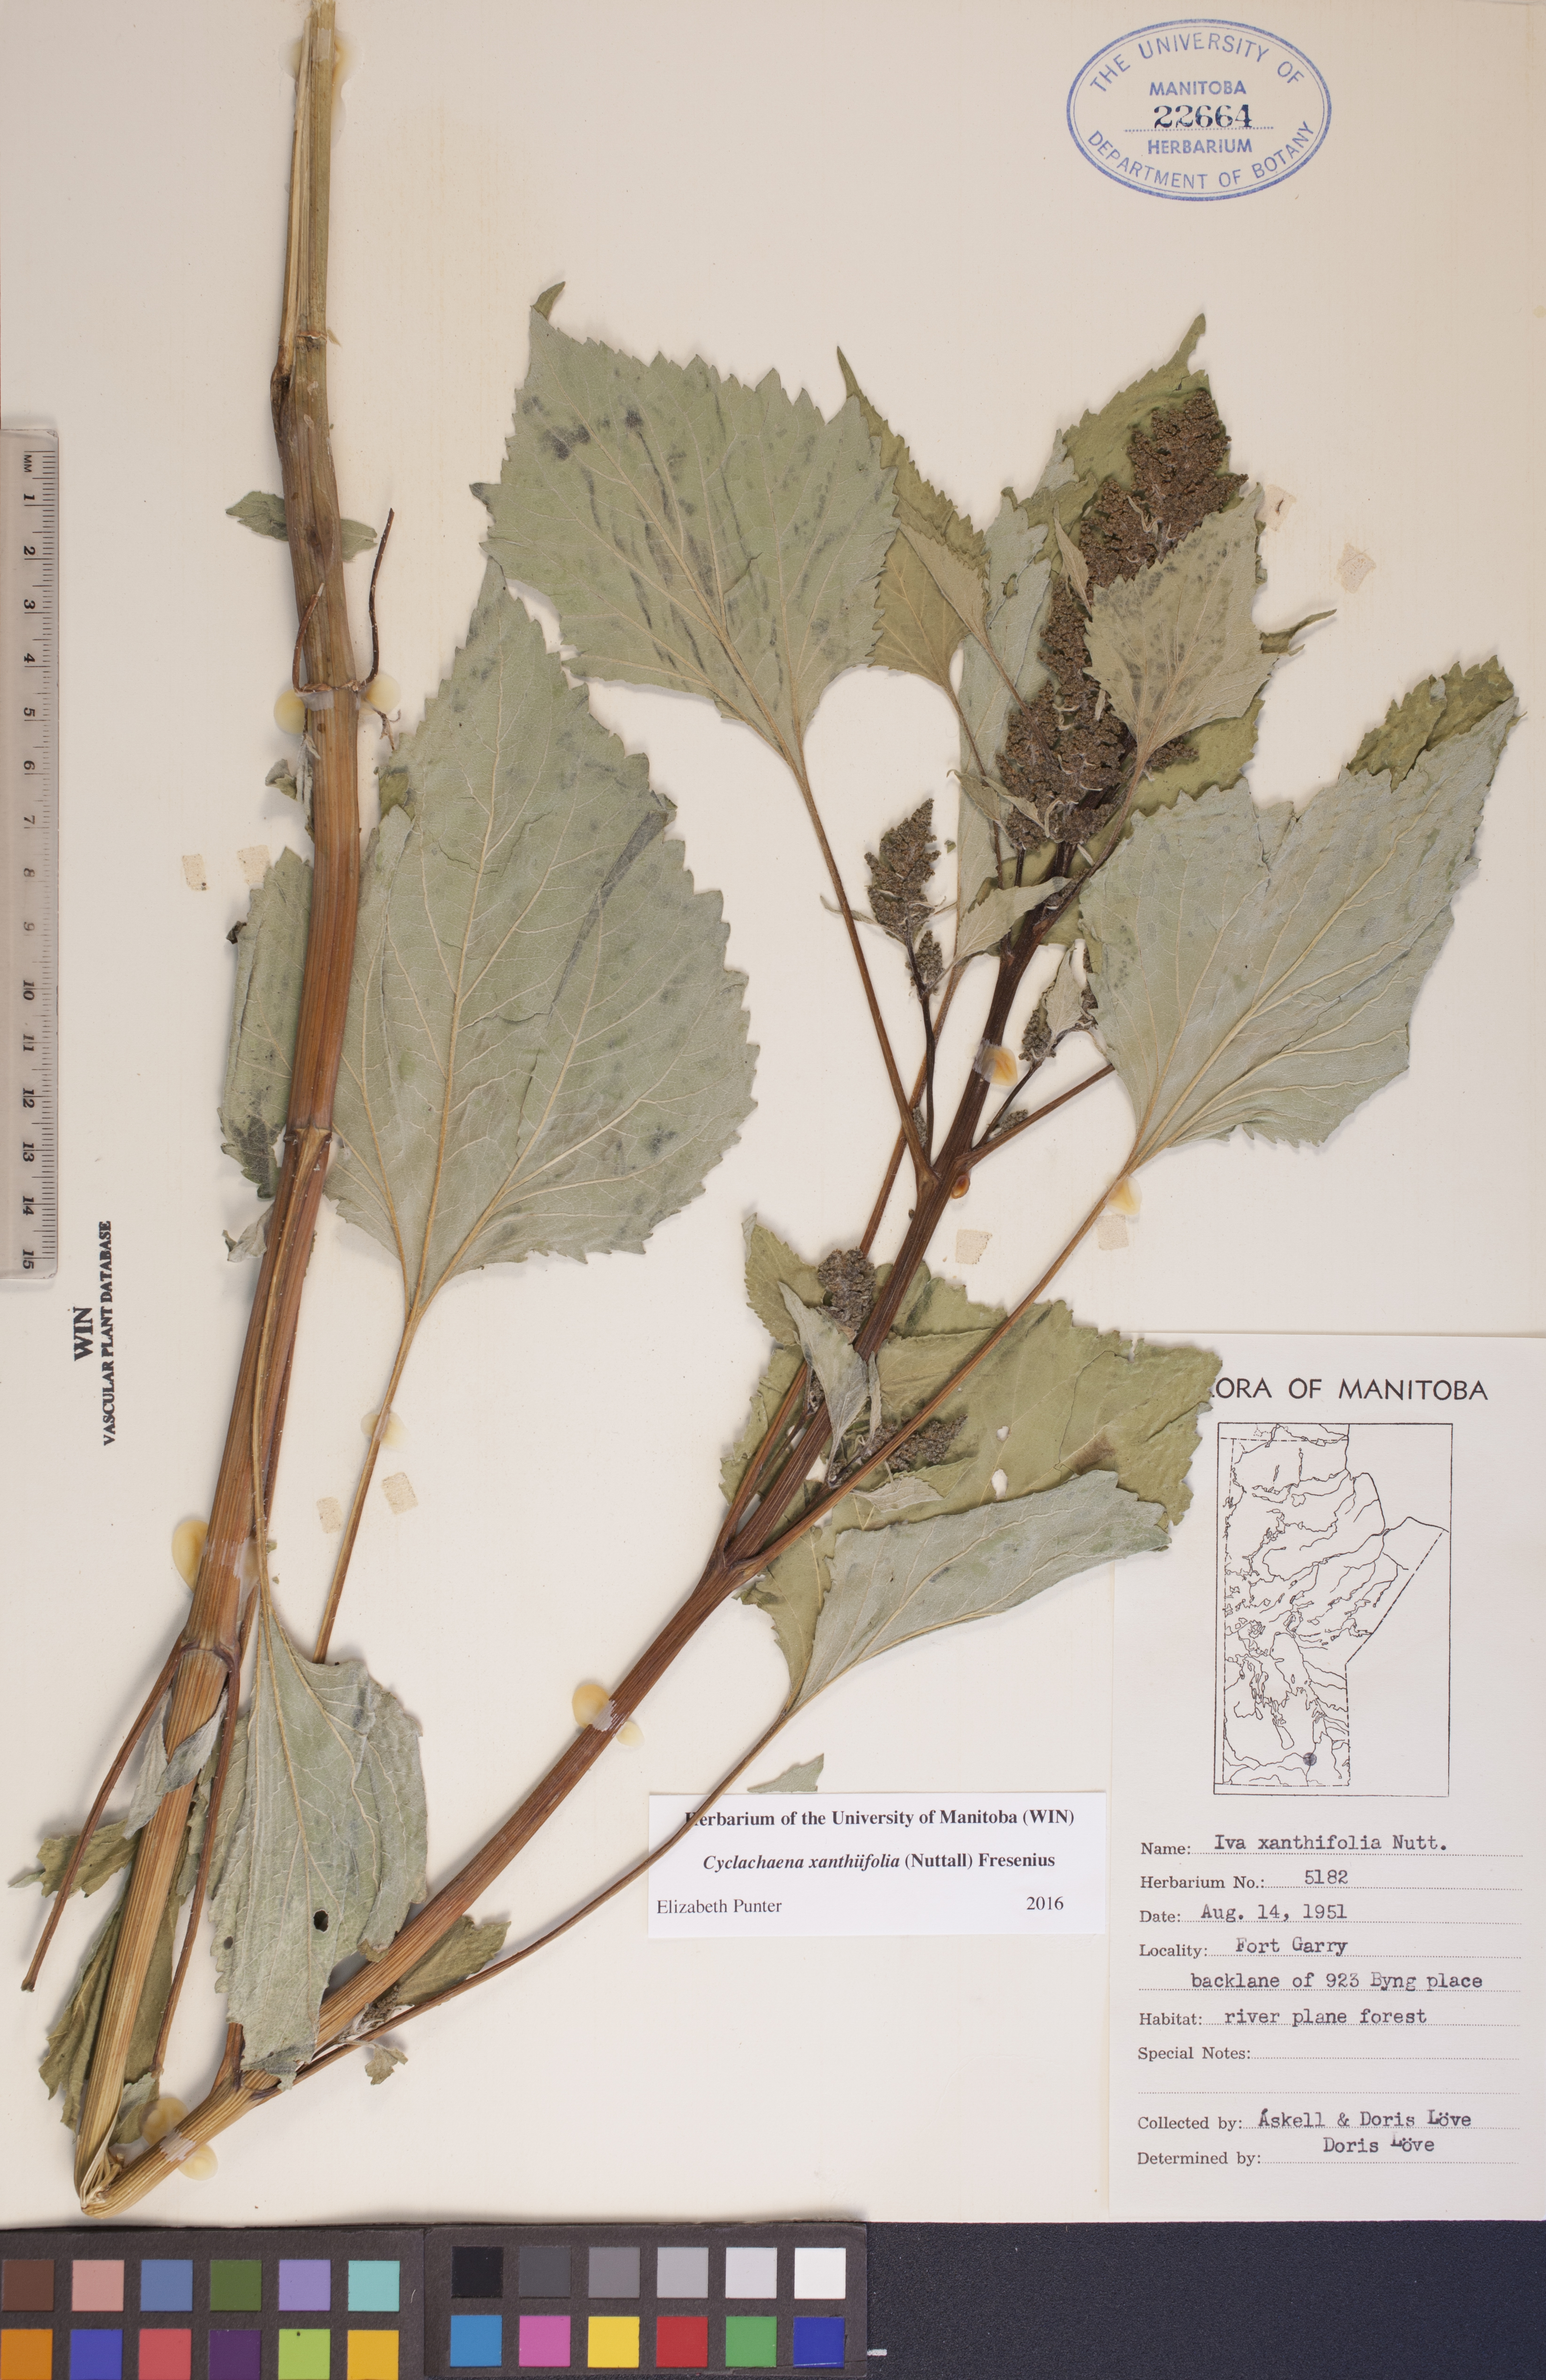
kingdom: Plantae
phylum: Tracheophyta
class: Magnoliopsida
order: Asterales
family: Asteraceae
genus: Cyclachaena
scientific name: Cyclachaena xanthiifolia
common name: Giant sumpweed
